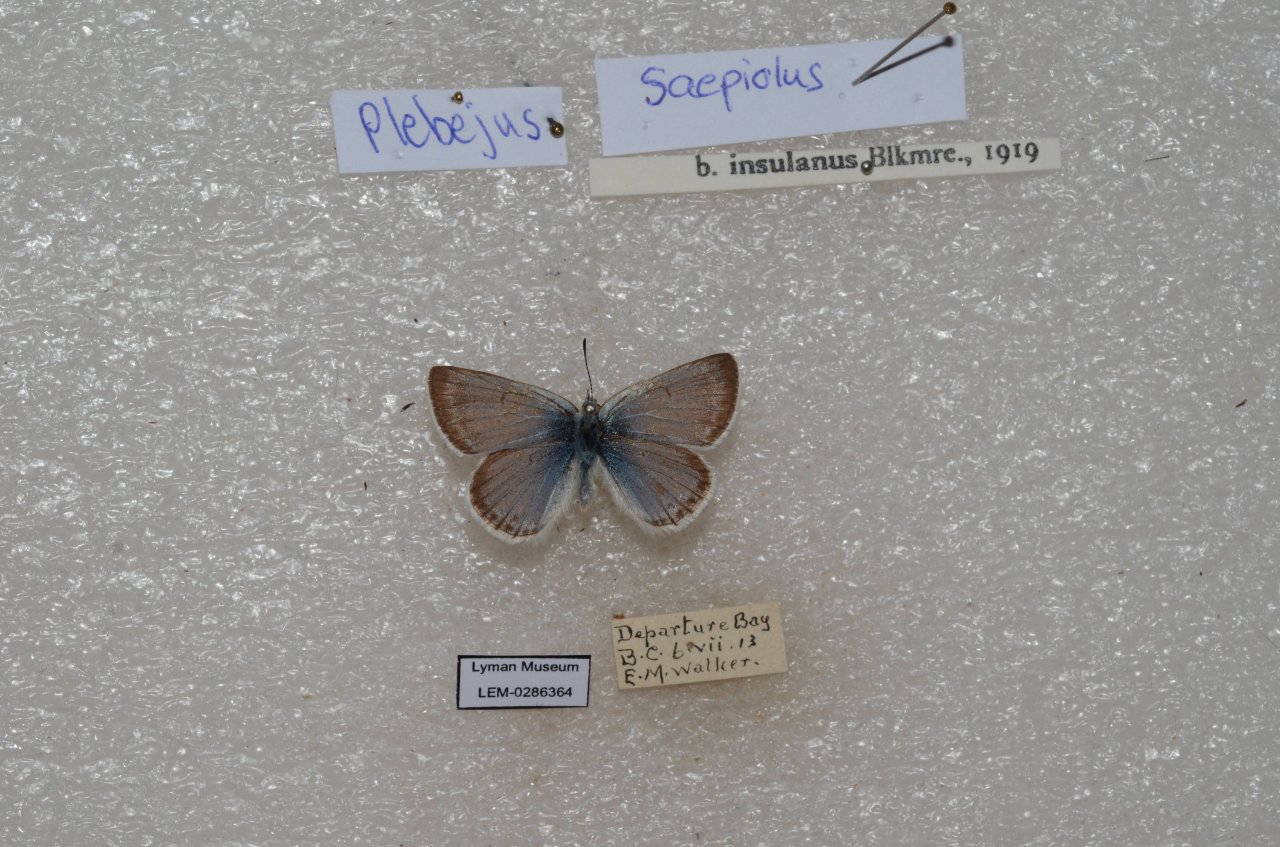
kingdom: Animalia
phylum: Arthropoda
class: Insecta
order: Lepidoptera
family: Lycaenidae
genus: Plebejus
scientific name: Plebejus saepiolus
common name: Greenish Blue
